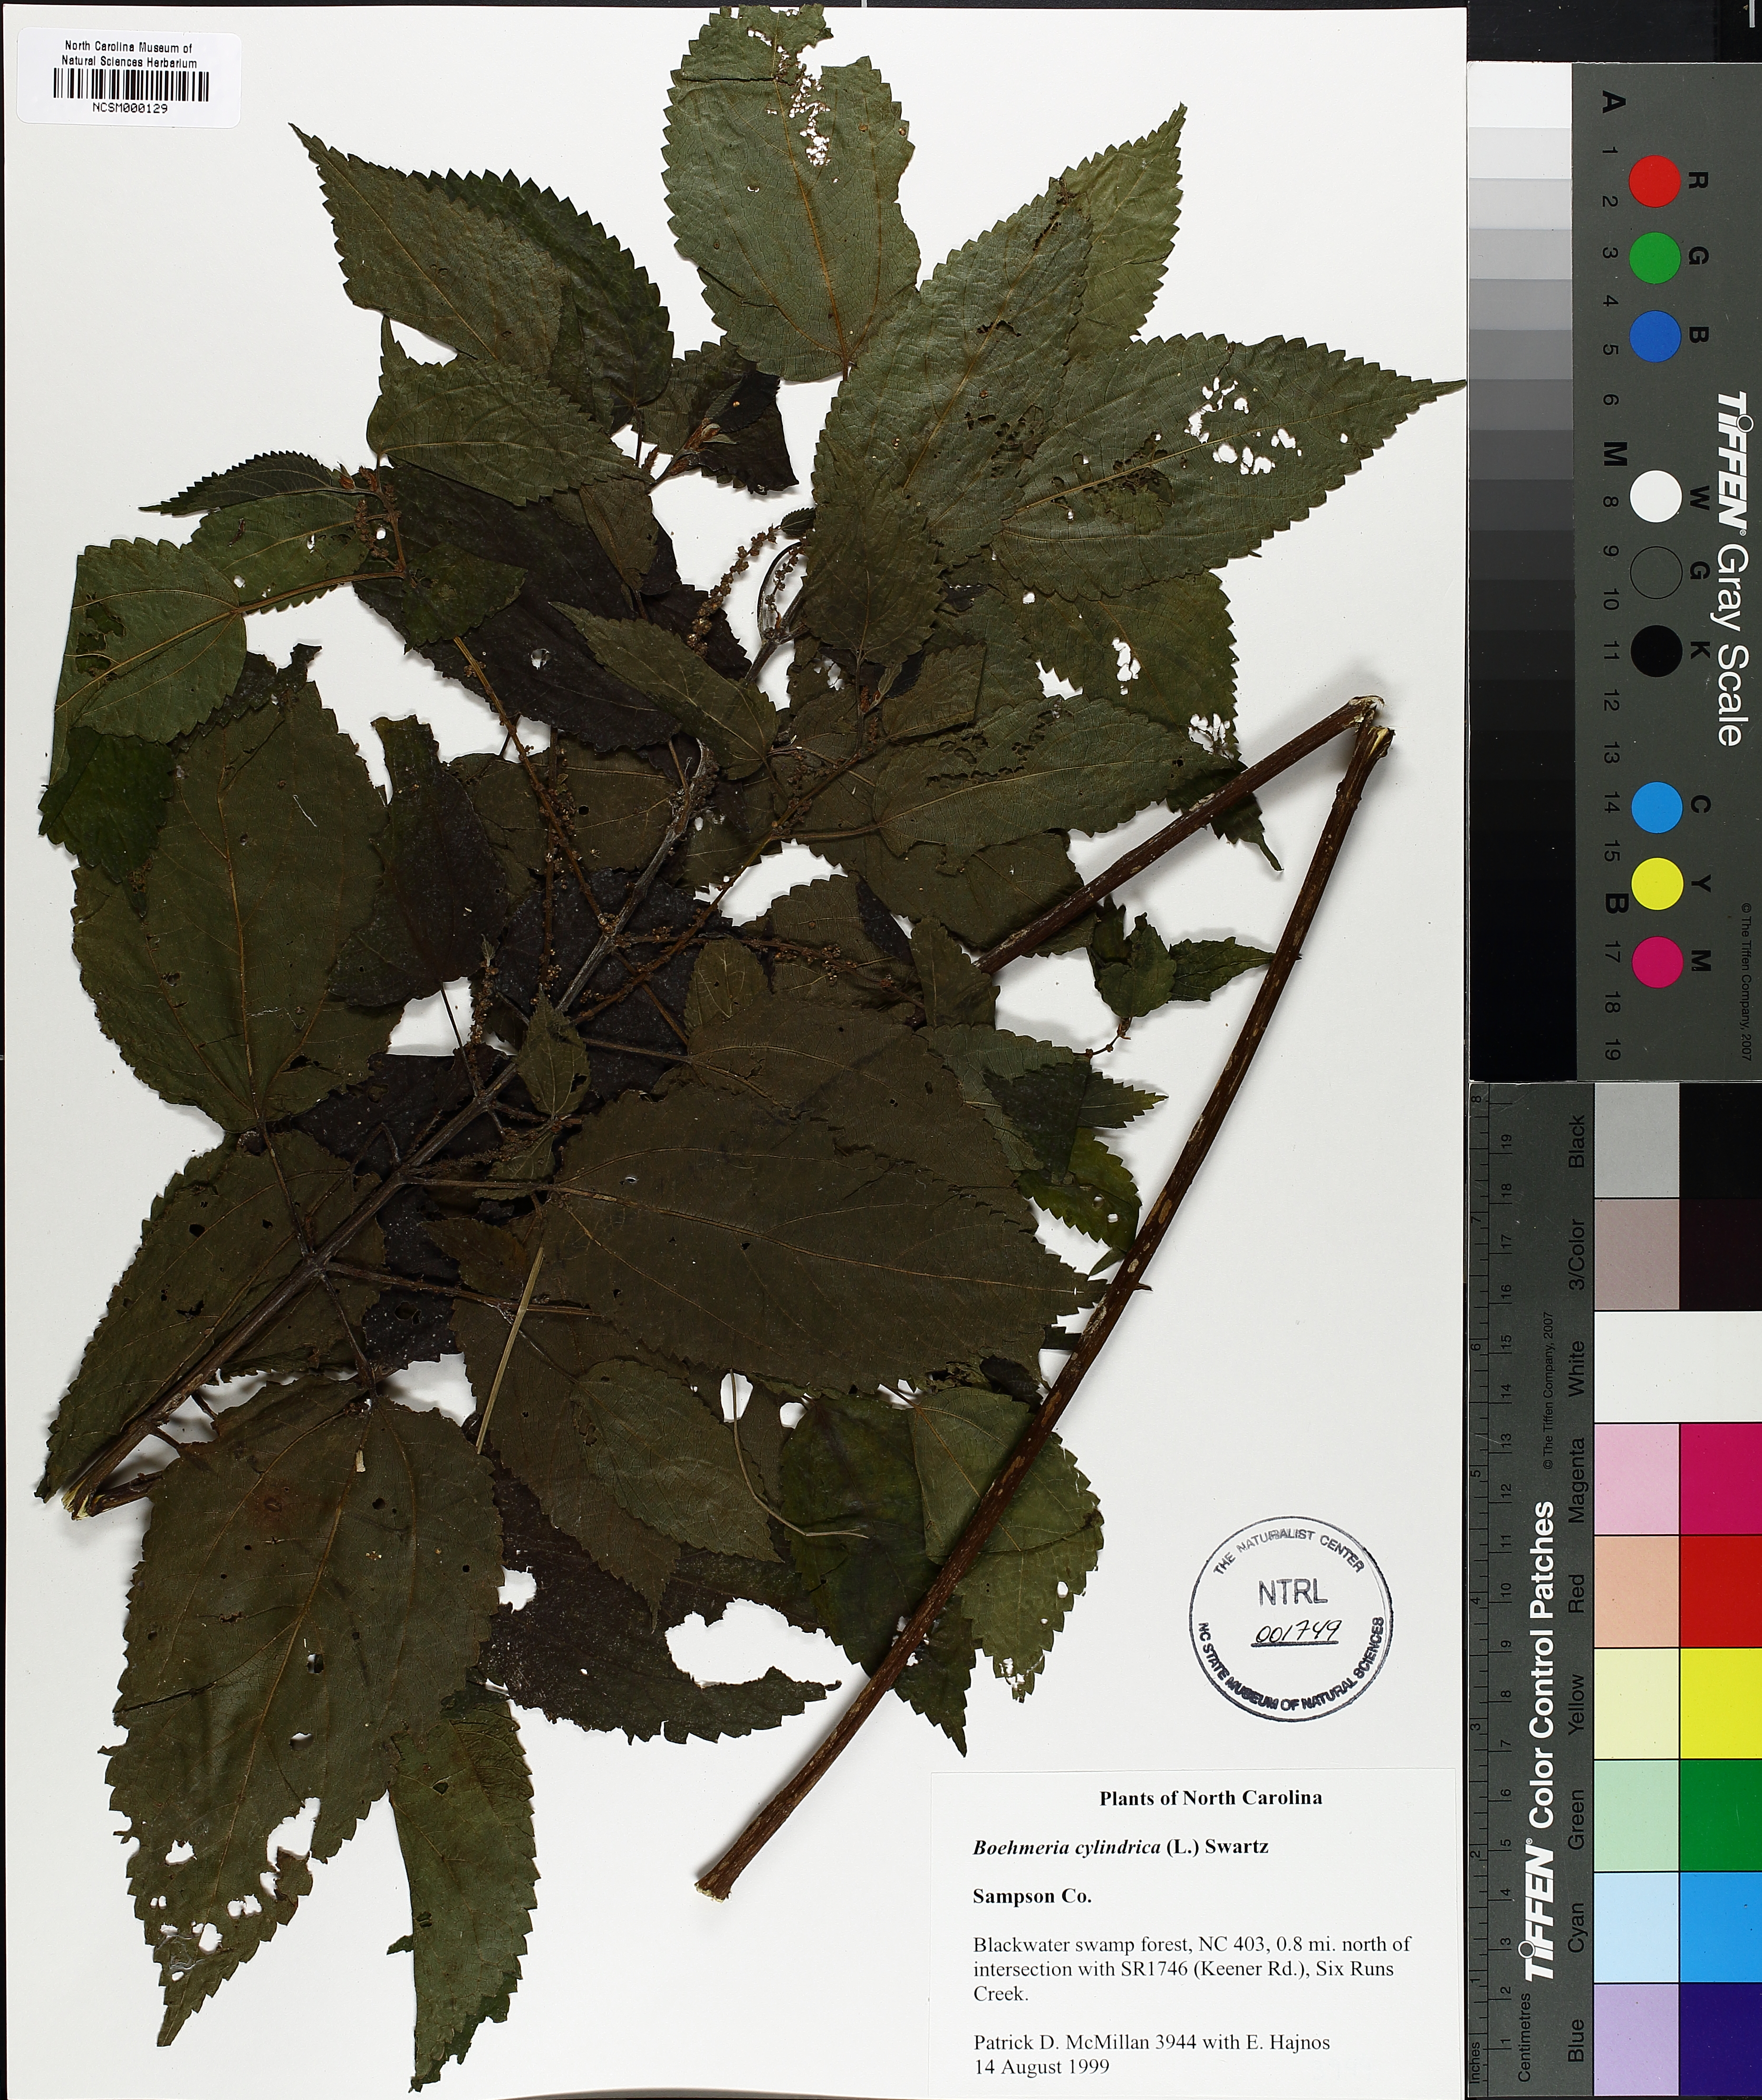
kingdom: Plantae
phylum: Tracheophyta
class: Magnoliopsida
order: Rosales
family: Urticaceae
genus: Boehmeria
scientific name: Boehmeria cylindrica
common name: Bog-hemp
